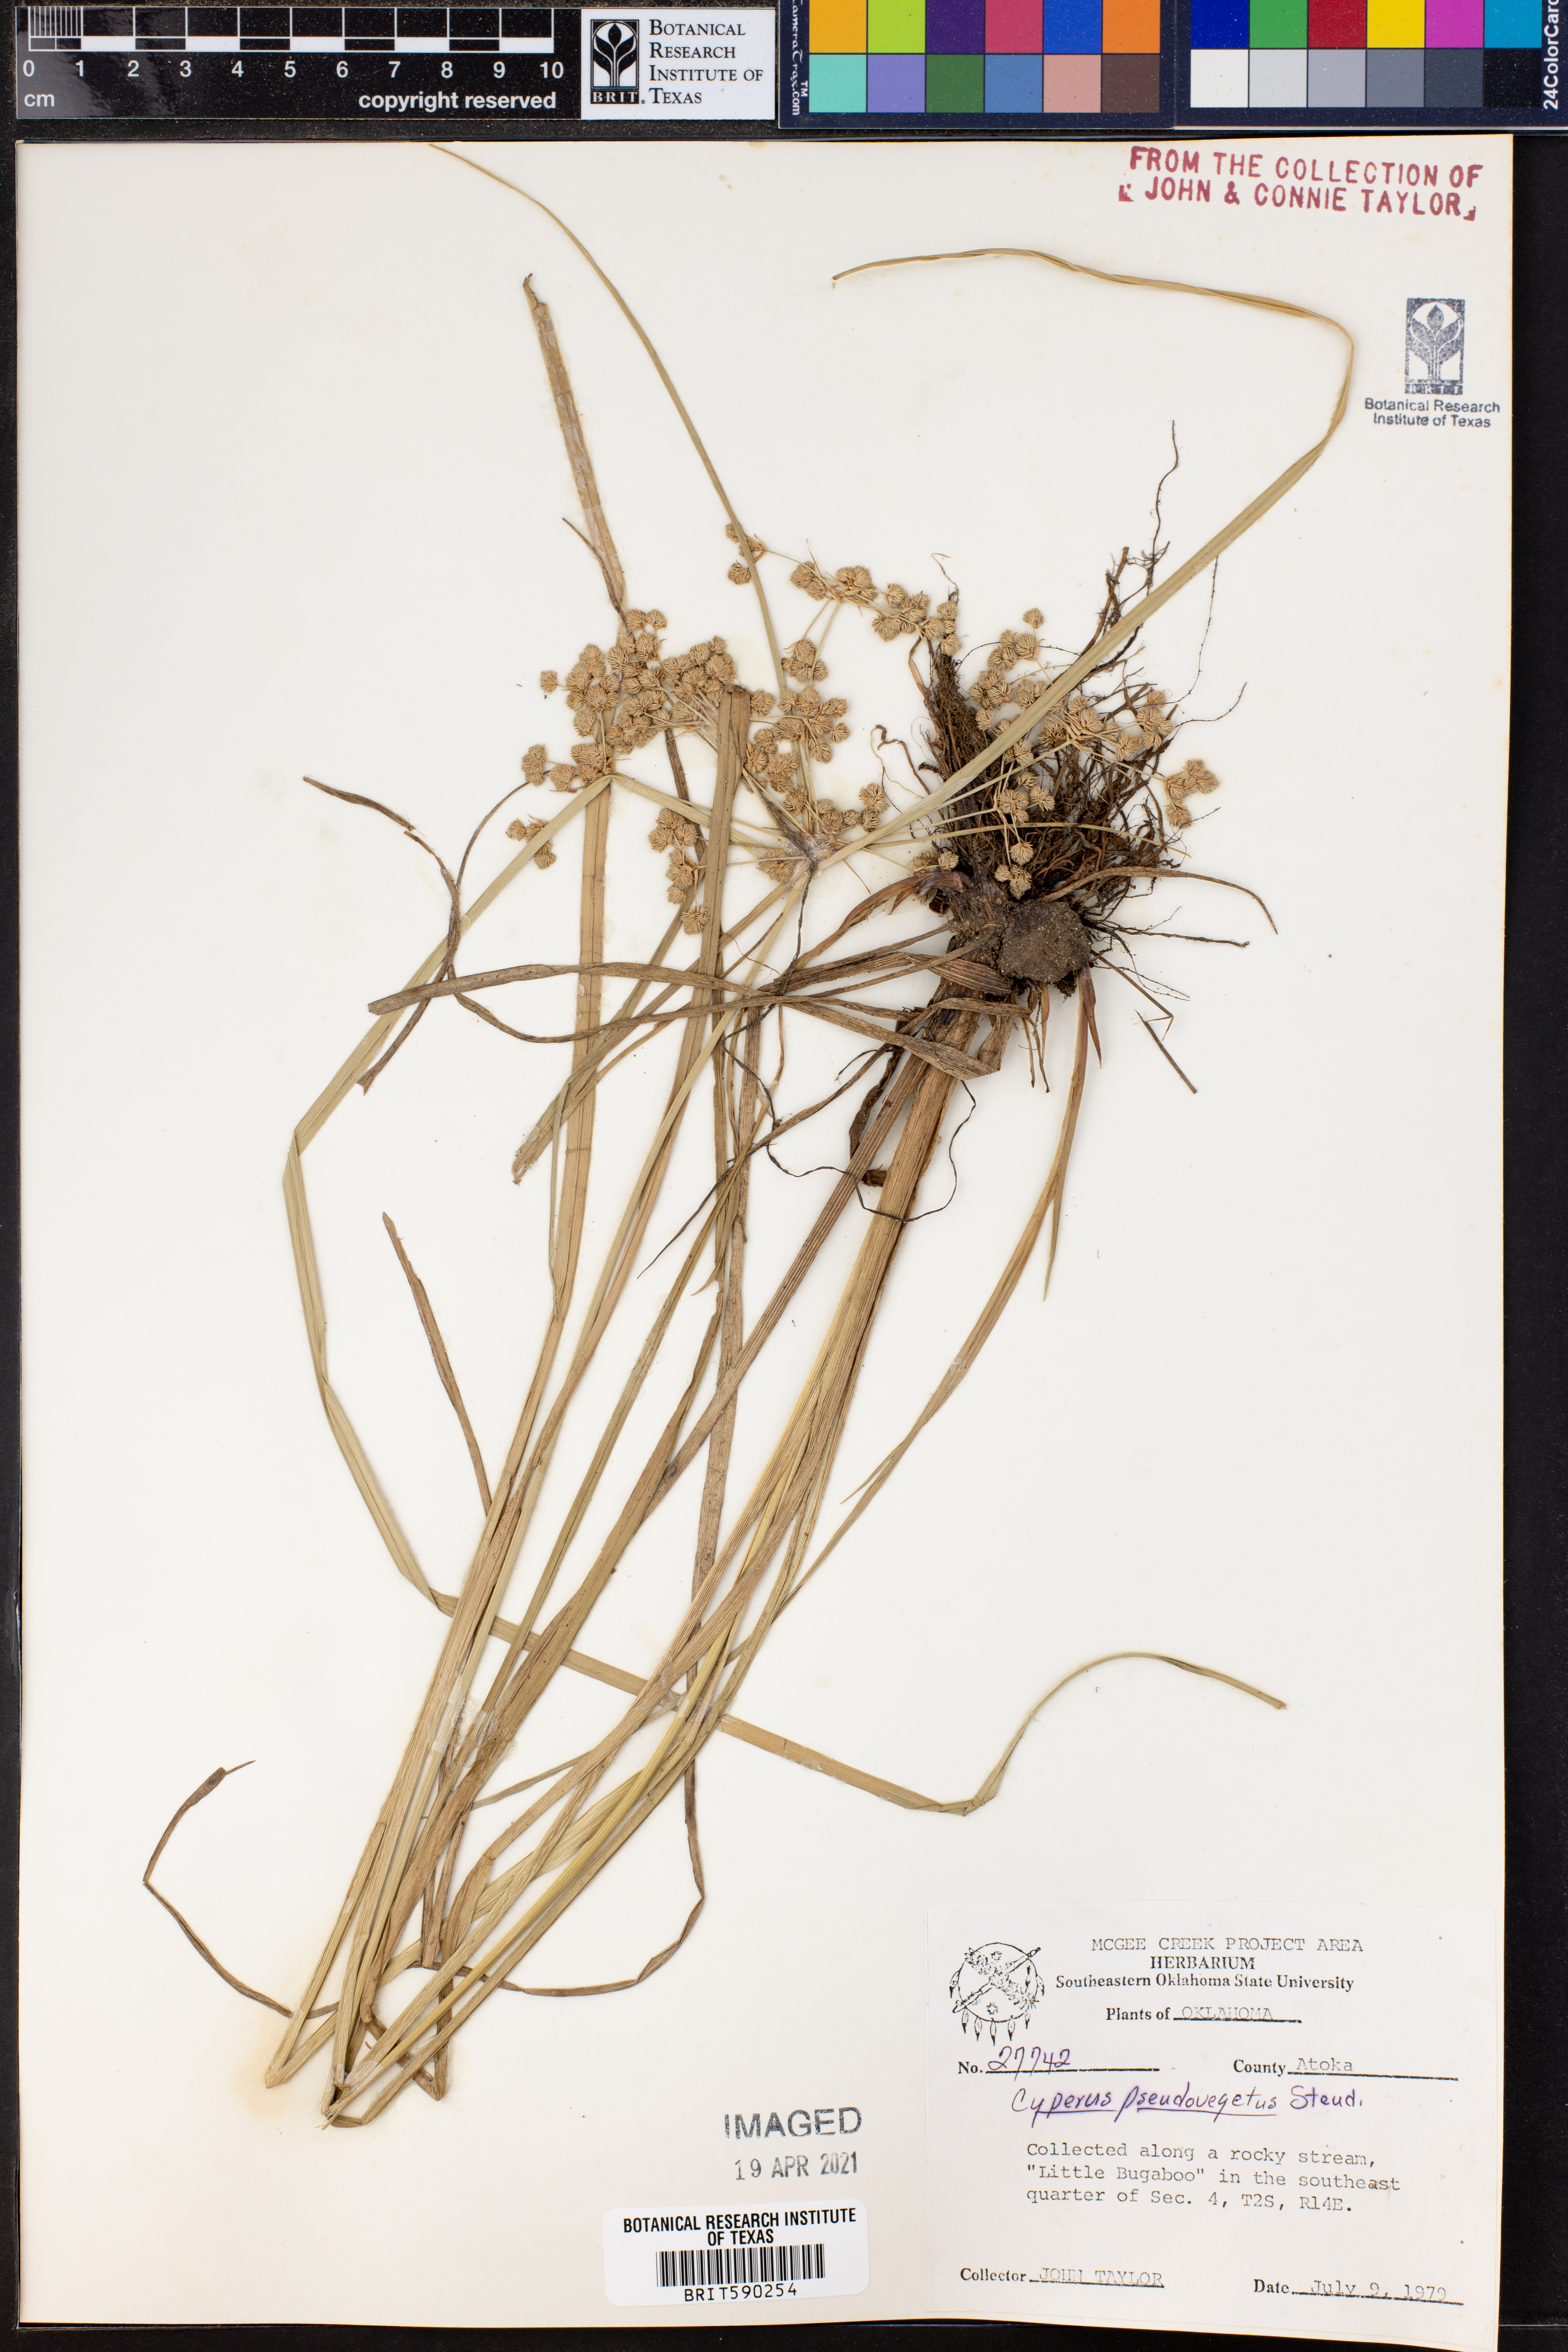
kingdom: Plantae
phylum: Tracheophyta
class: Liliopsida
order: Poales
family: Cyperaceae
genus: Cyperus
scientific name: Cyperus pseudovegetus
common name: Marsh flat sedge
